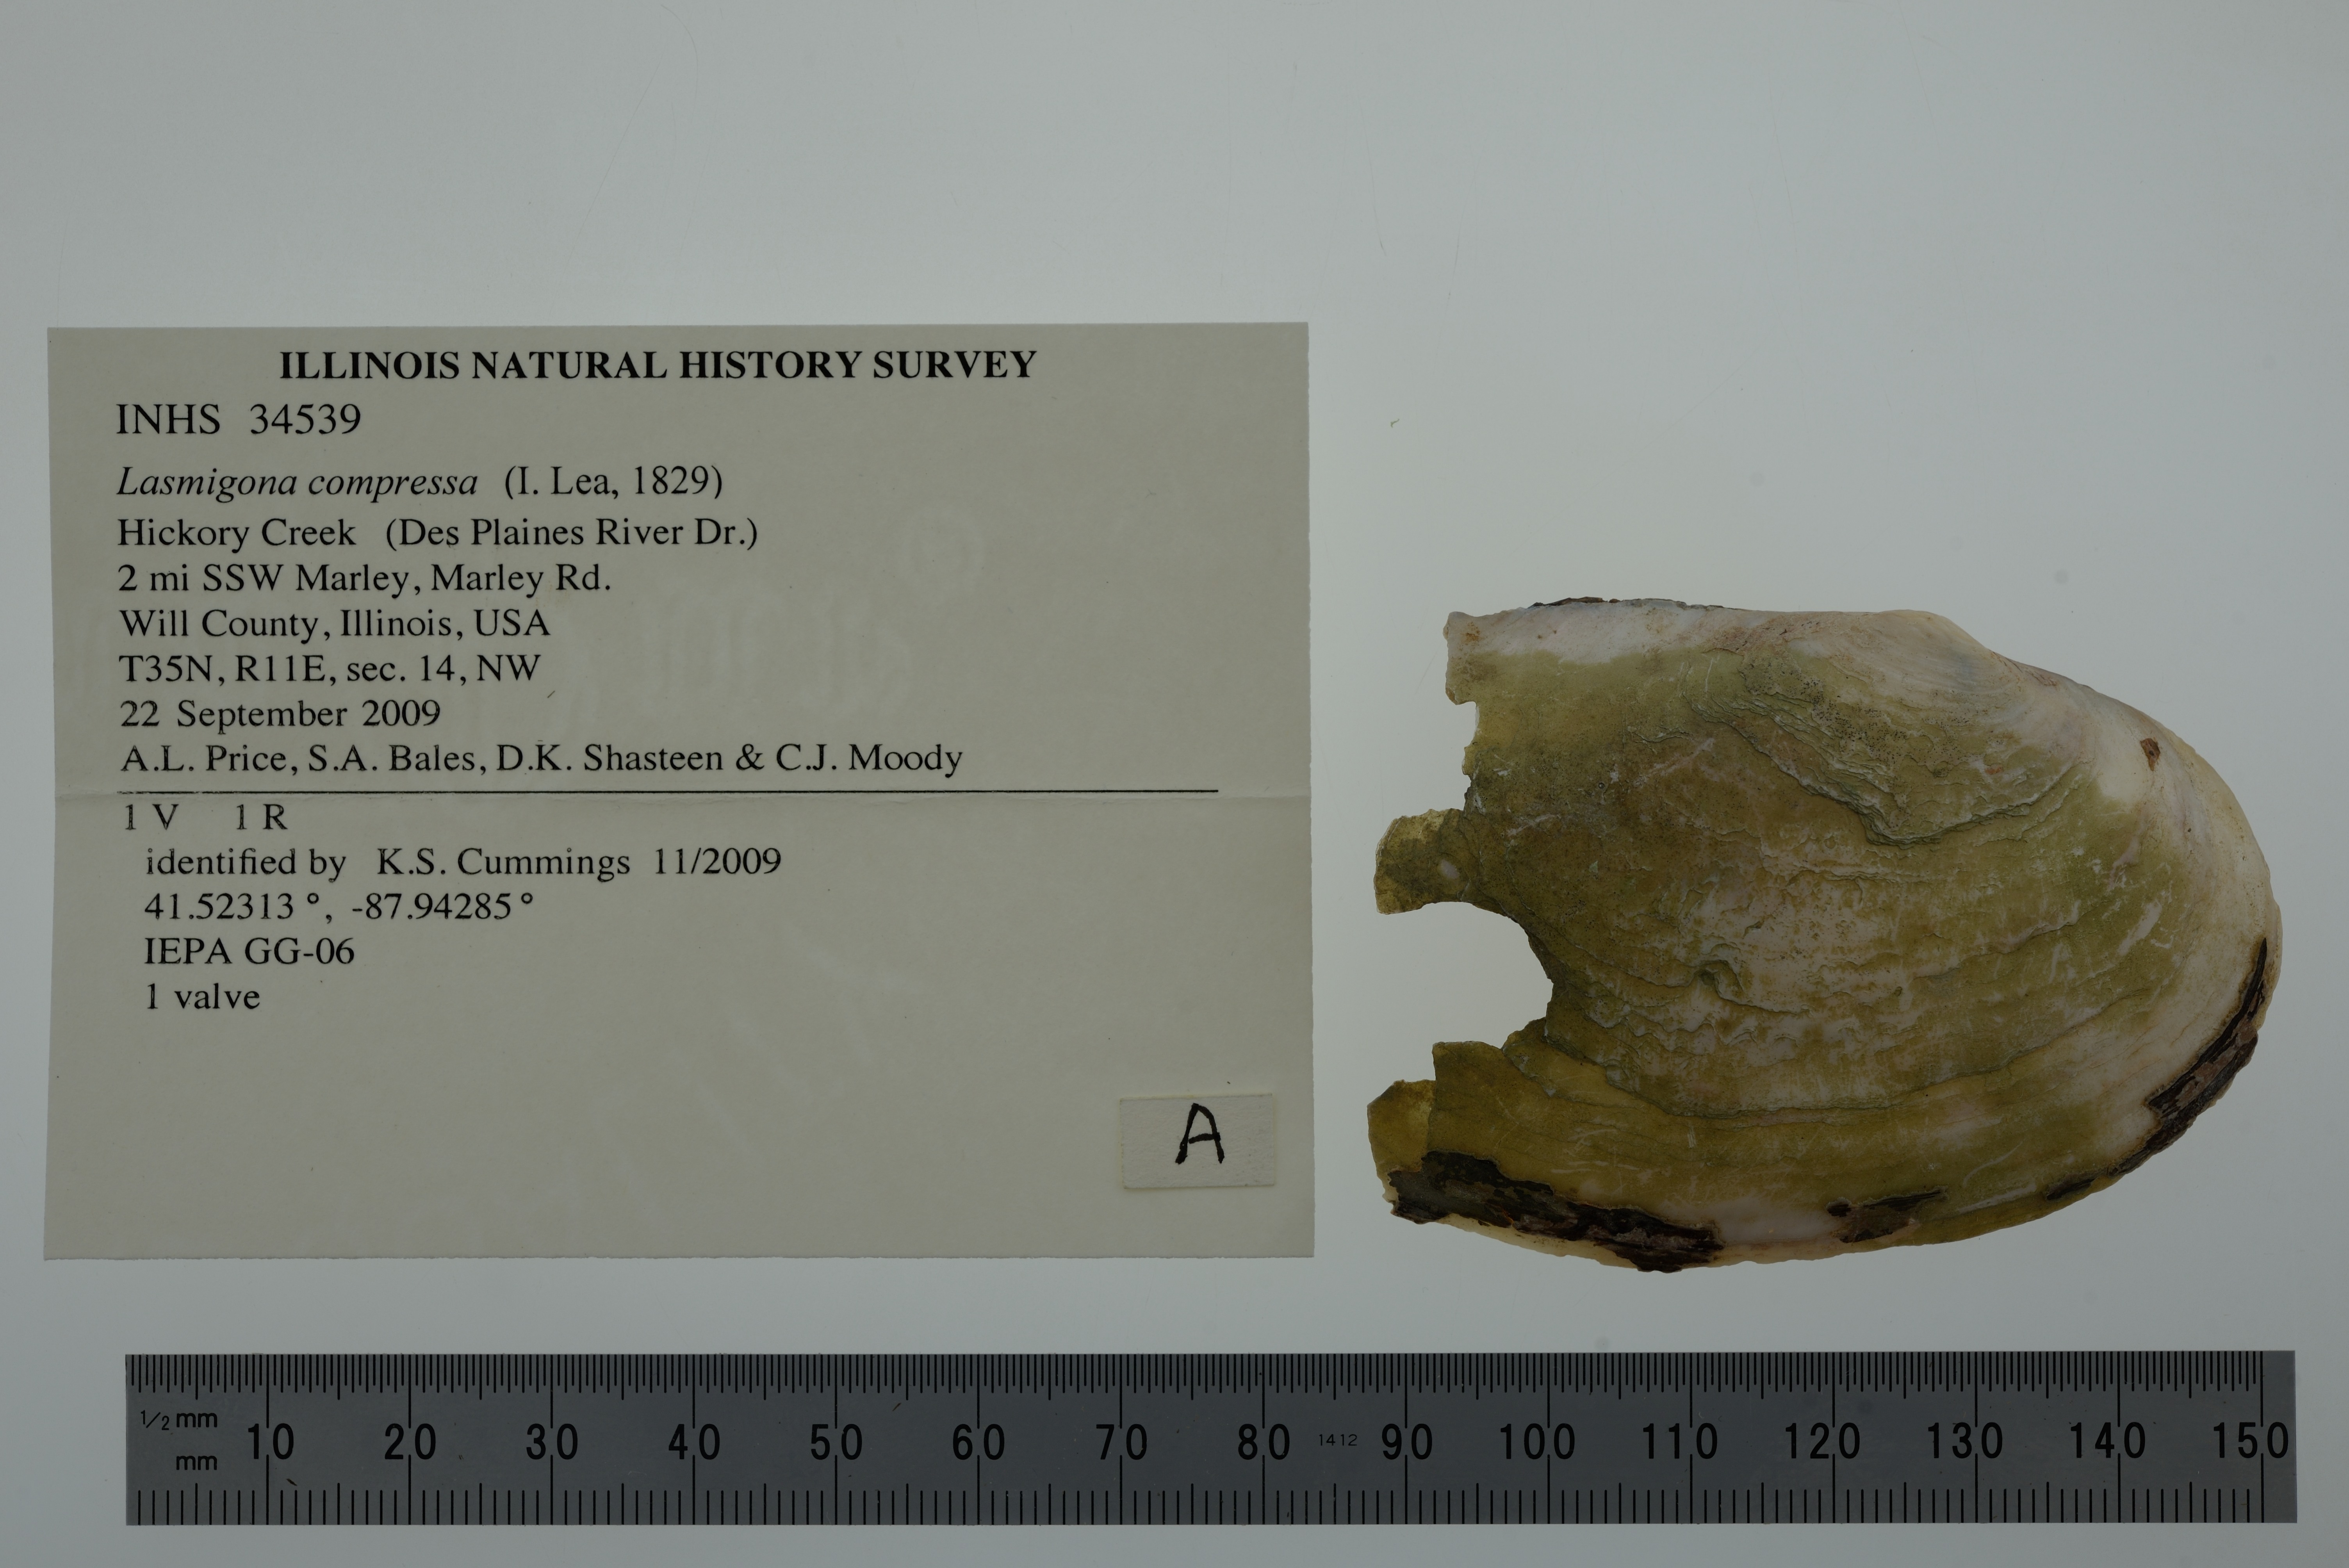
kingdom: Animalia
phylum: Mollusca
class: Bivalvia
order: Unionida
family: Unionidae
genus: Lasmigona
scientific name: Lasmigona compressa
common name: Creek heelsplitter
